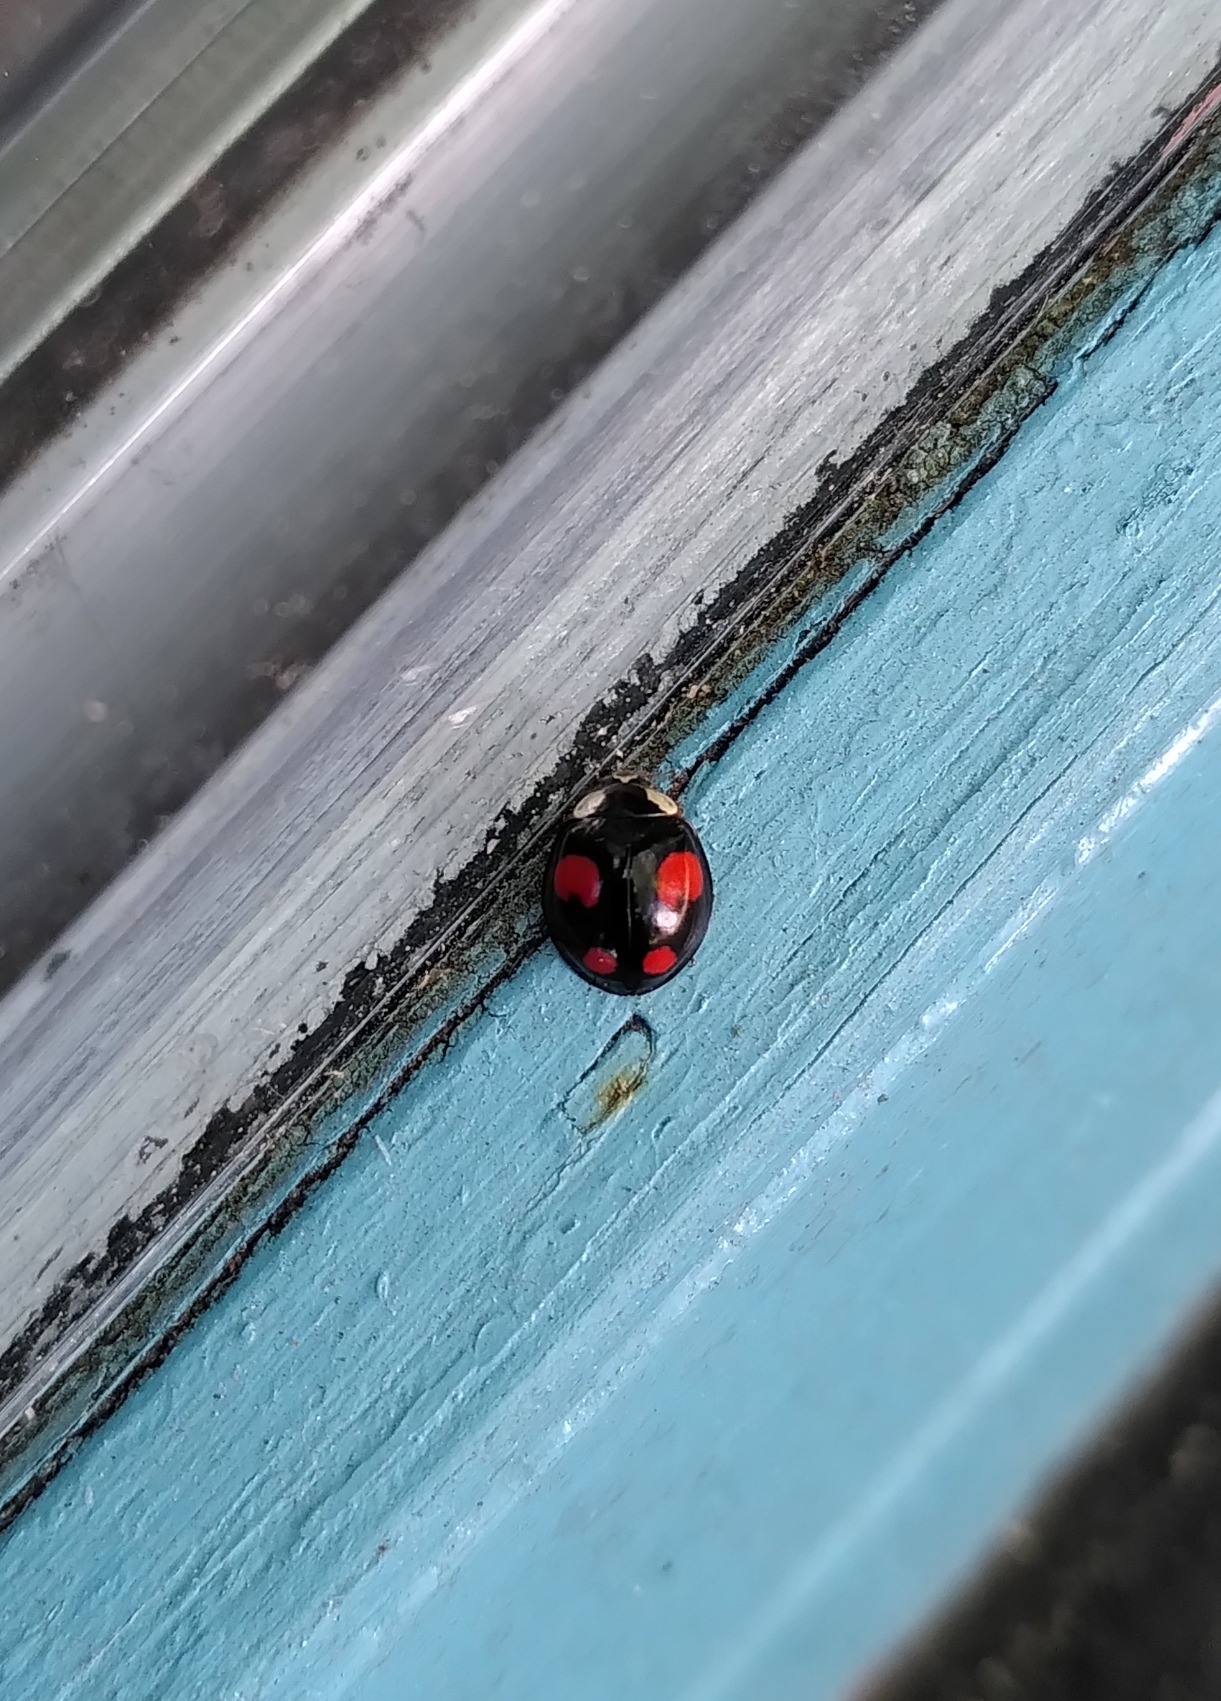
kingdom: Animalia
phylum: Arthropoda
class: Insecta
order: Coleoptera
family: Coccinellidae
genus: Harmonia
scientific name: Harmonia axyridis
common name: Harlekinmariehøne
